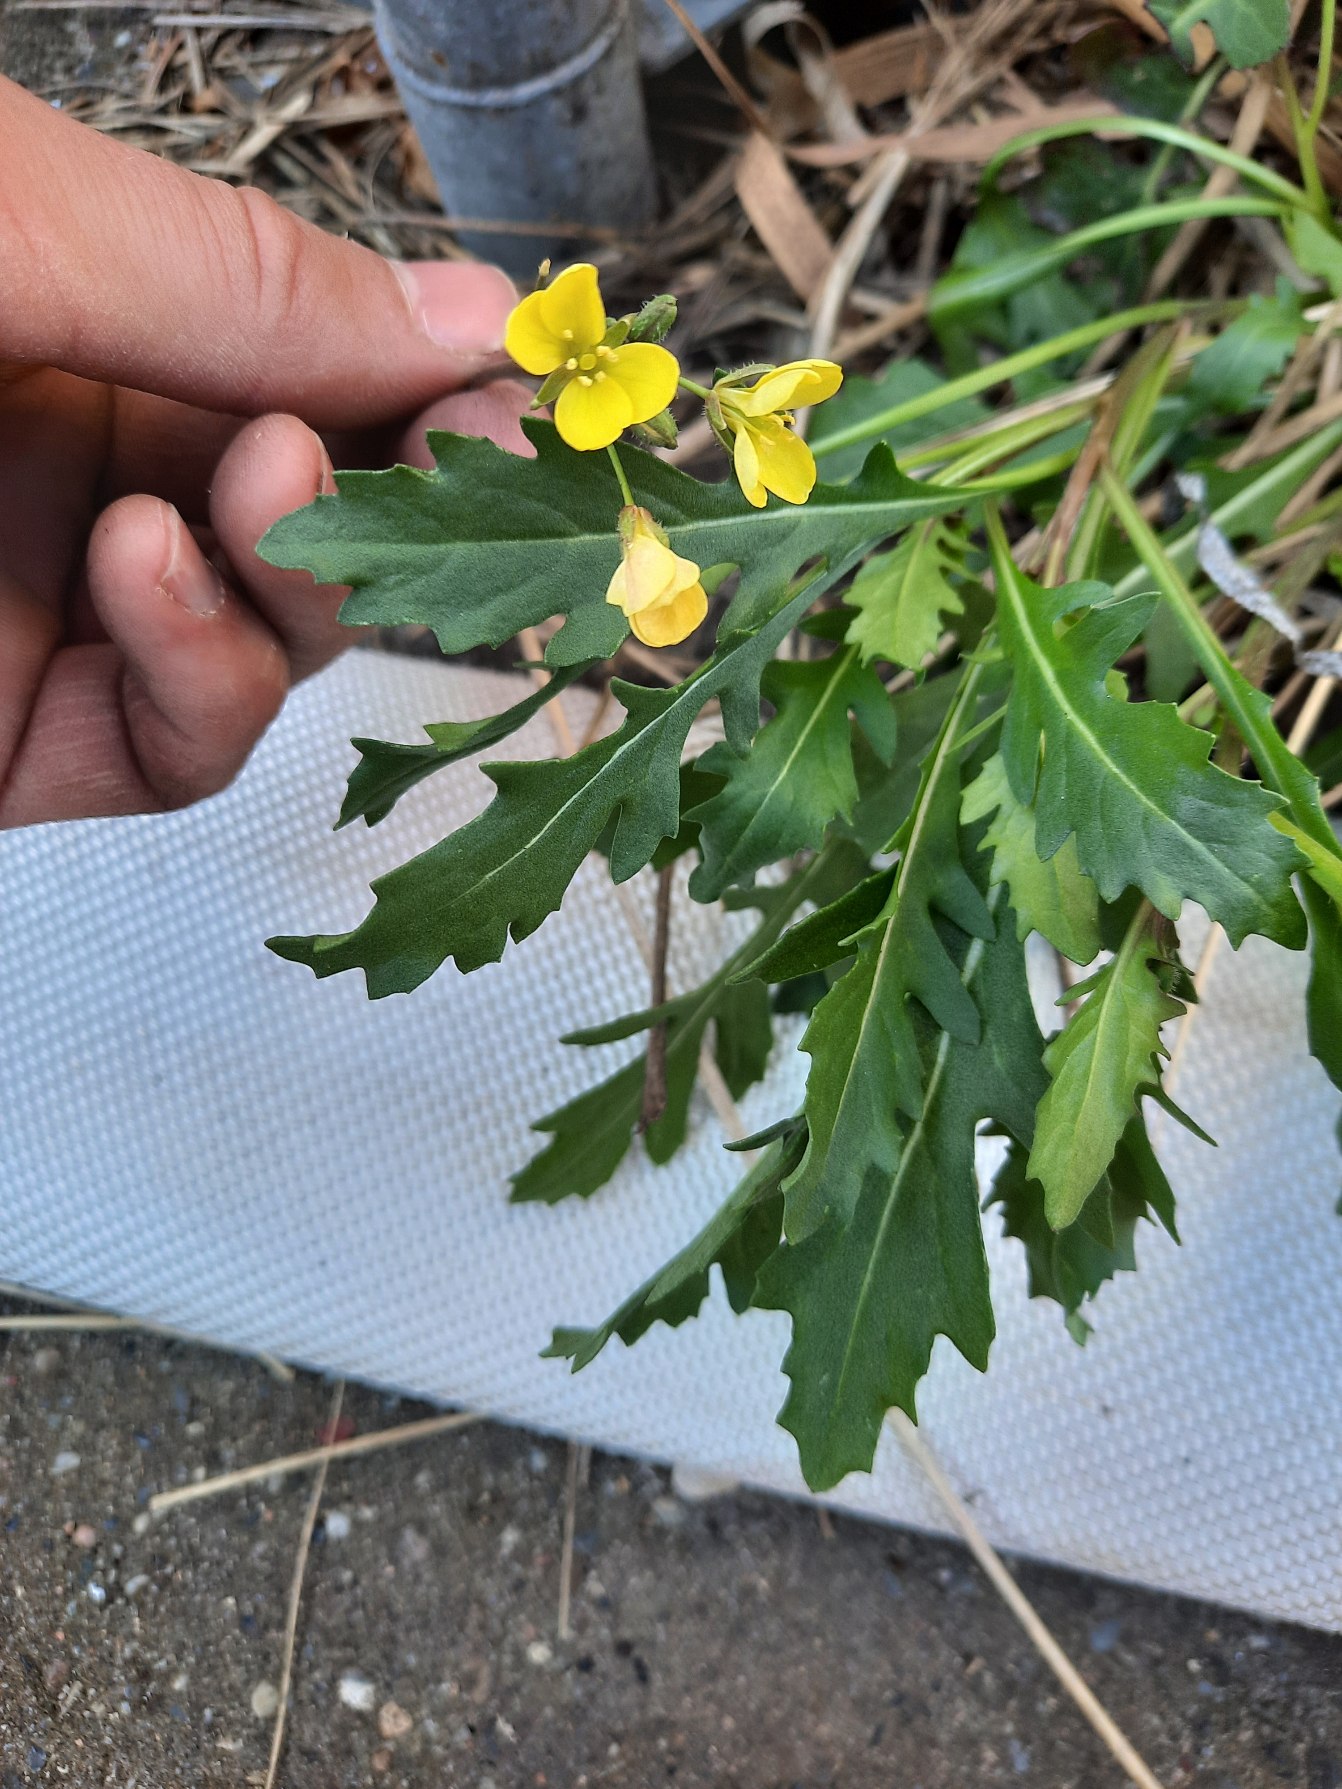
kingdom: Plantae
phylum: Tracheophyta
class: Magnoliopsida
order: Brassicales
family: Brassicaceae
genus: Diplotaxis
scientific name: Diplotaxis muralis
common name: Mursennep
